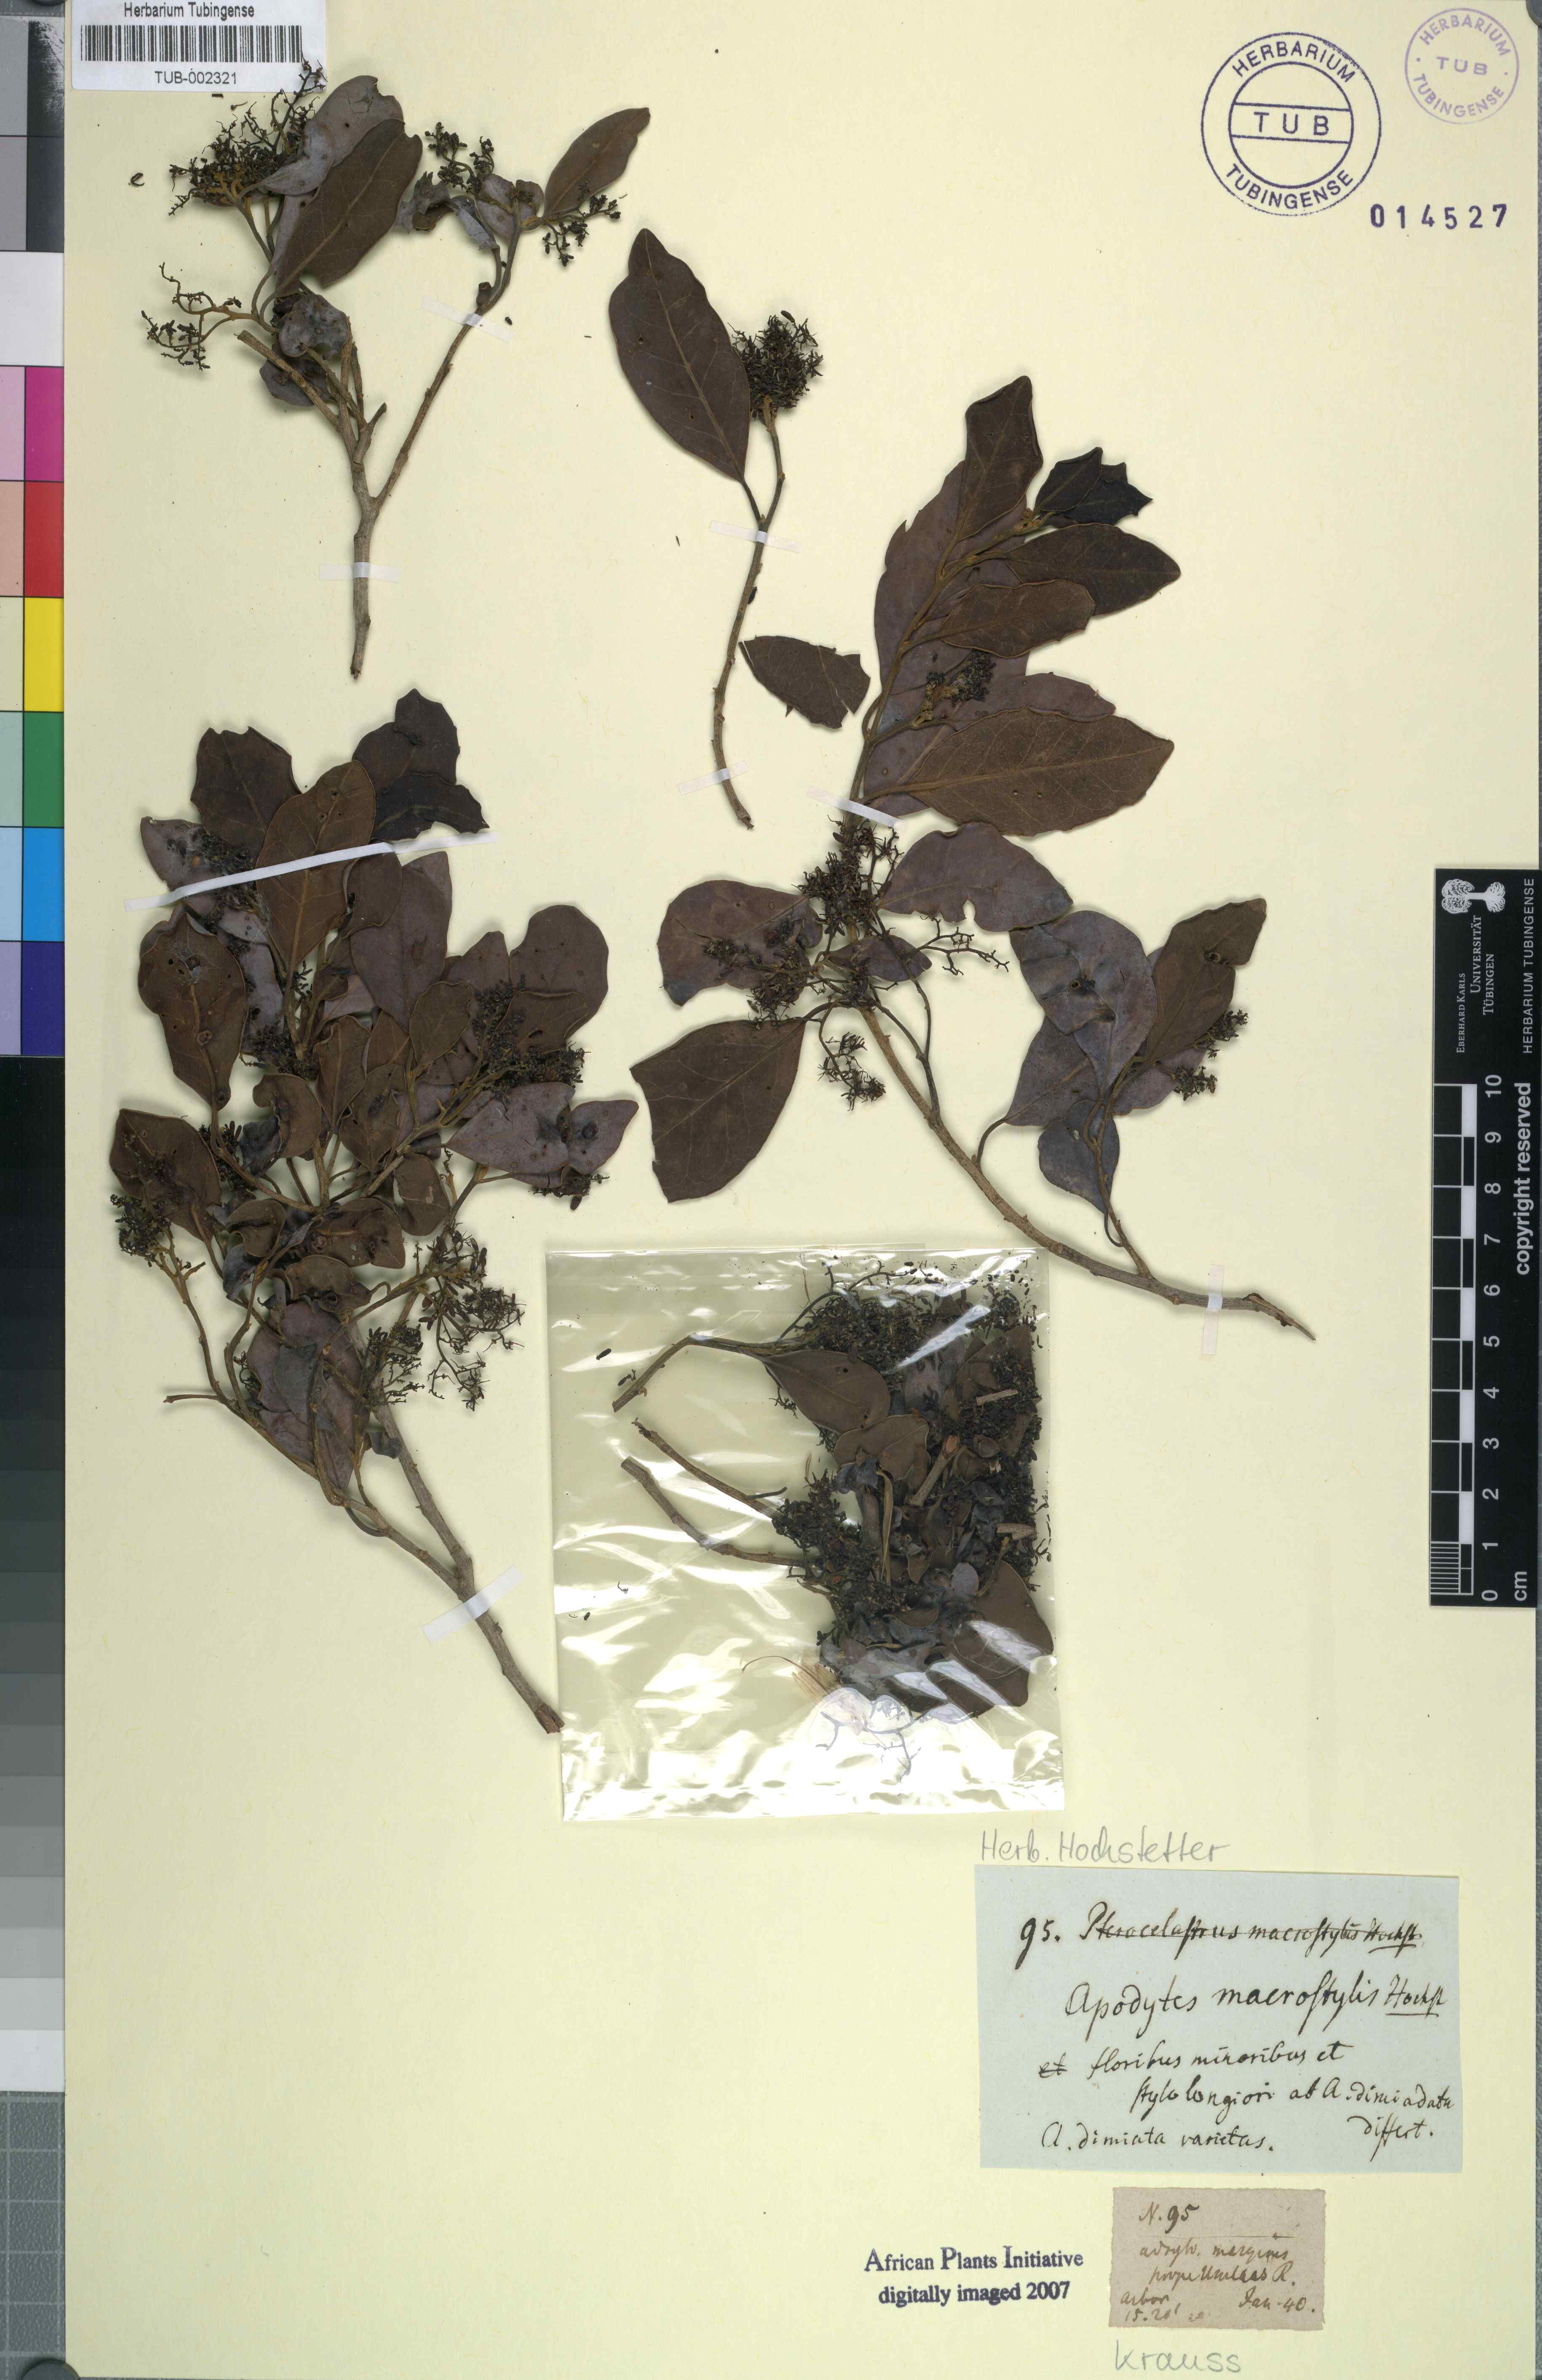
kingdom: Plantae
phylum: Tracheophyta
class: Magnoliopsida
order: Metteniusales
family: Metteniusaceae
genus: Apodytes
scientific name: Apodytes dimidiata
